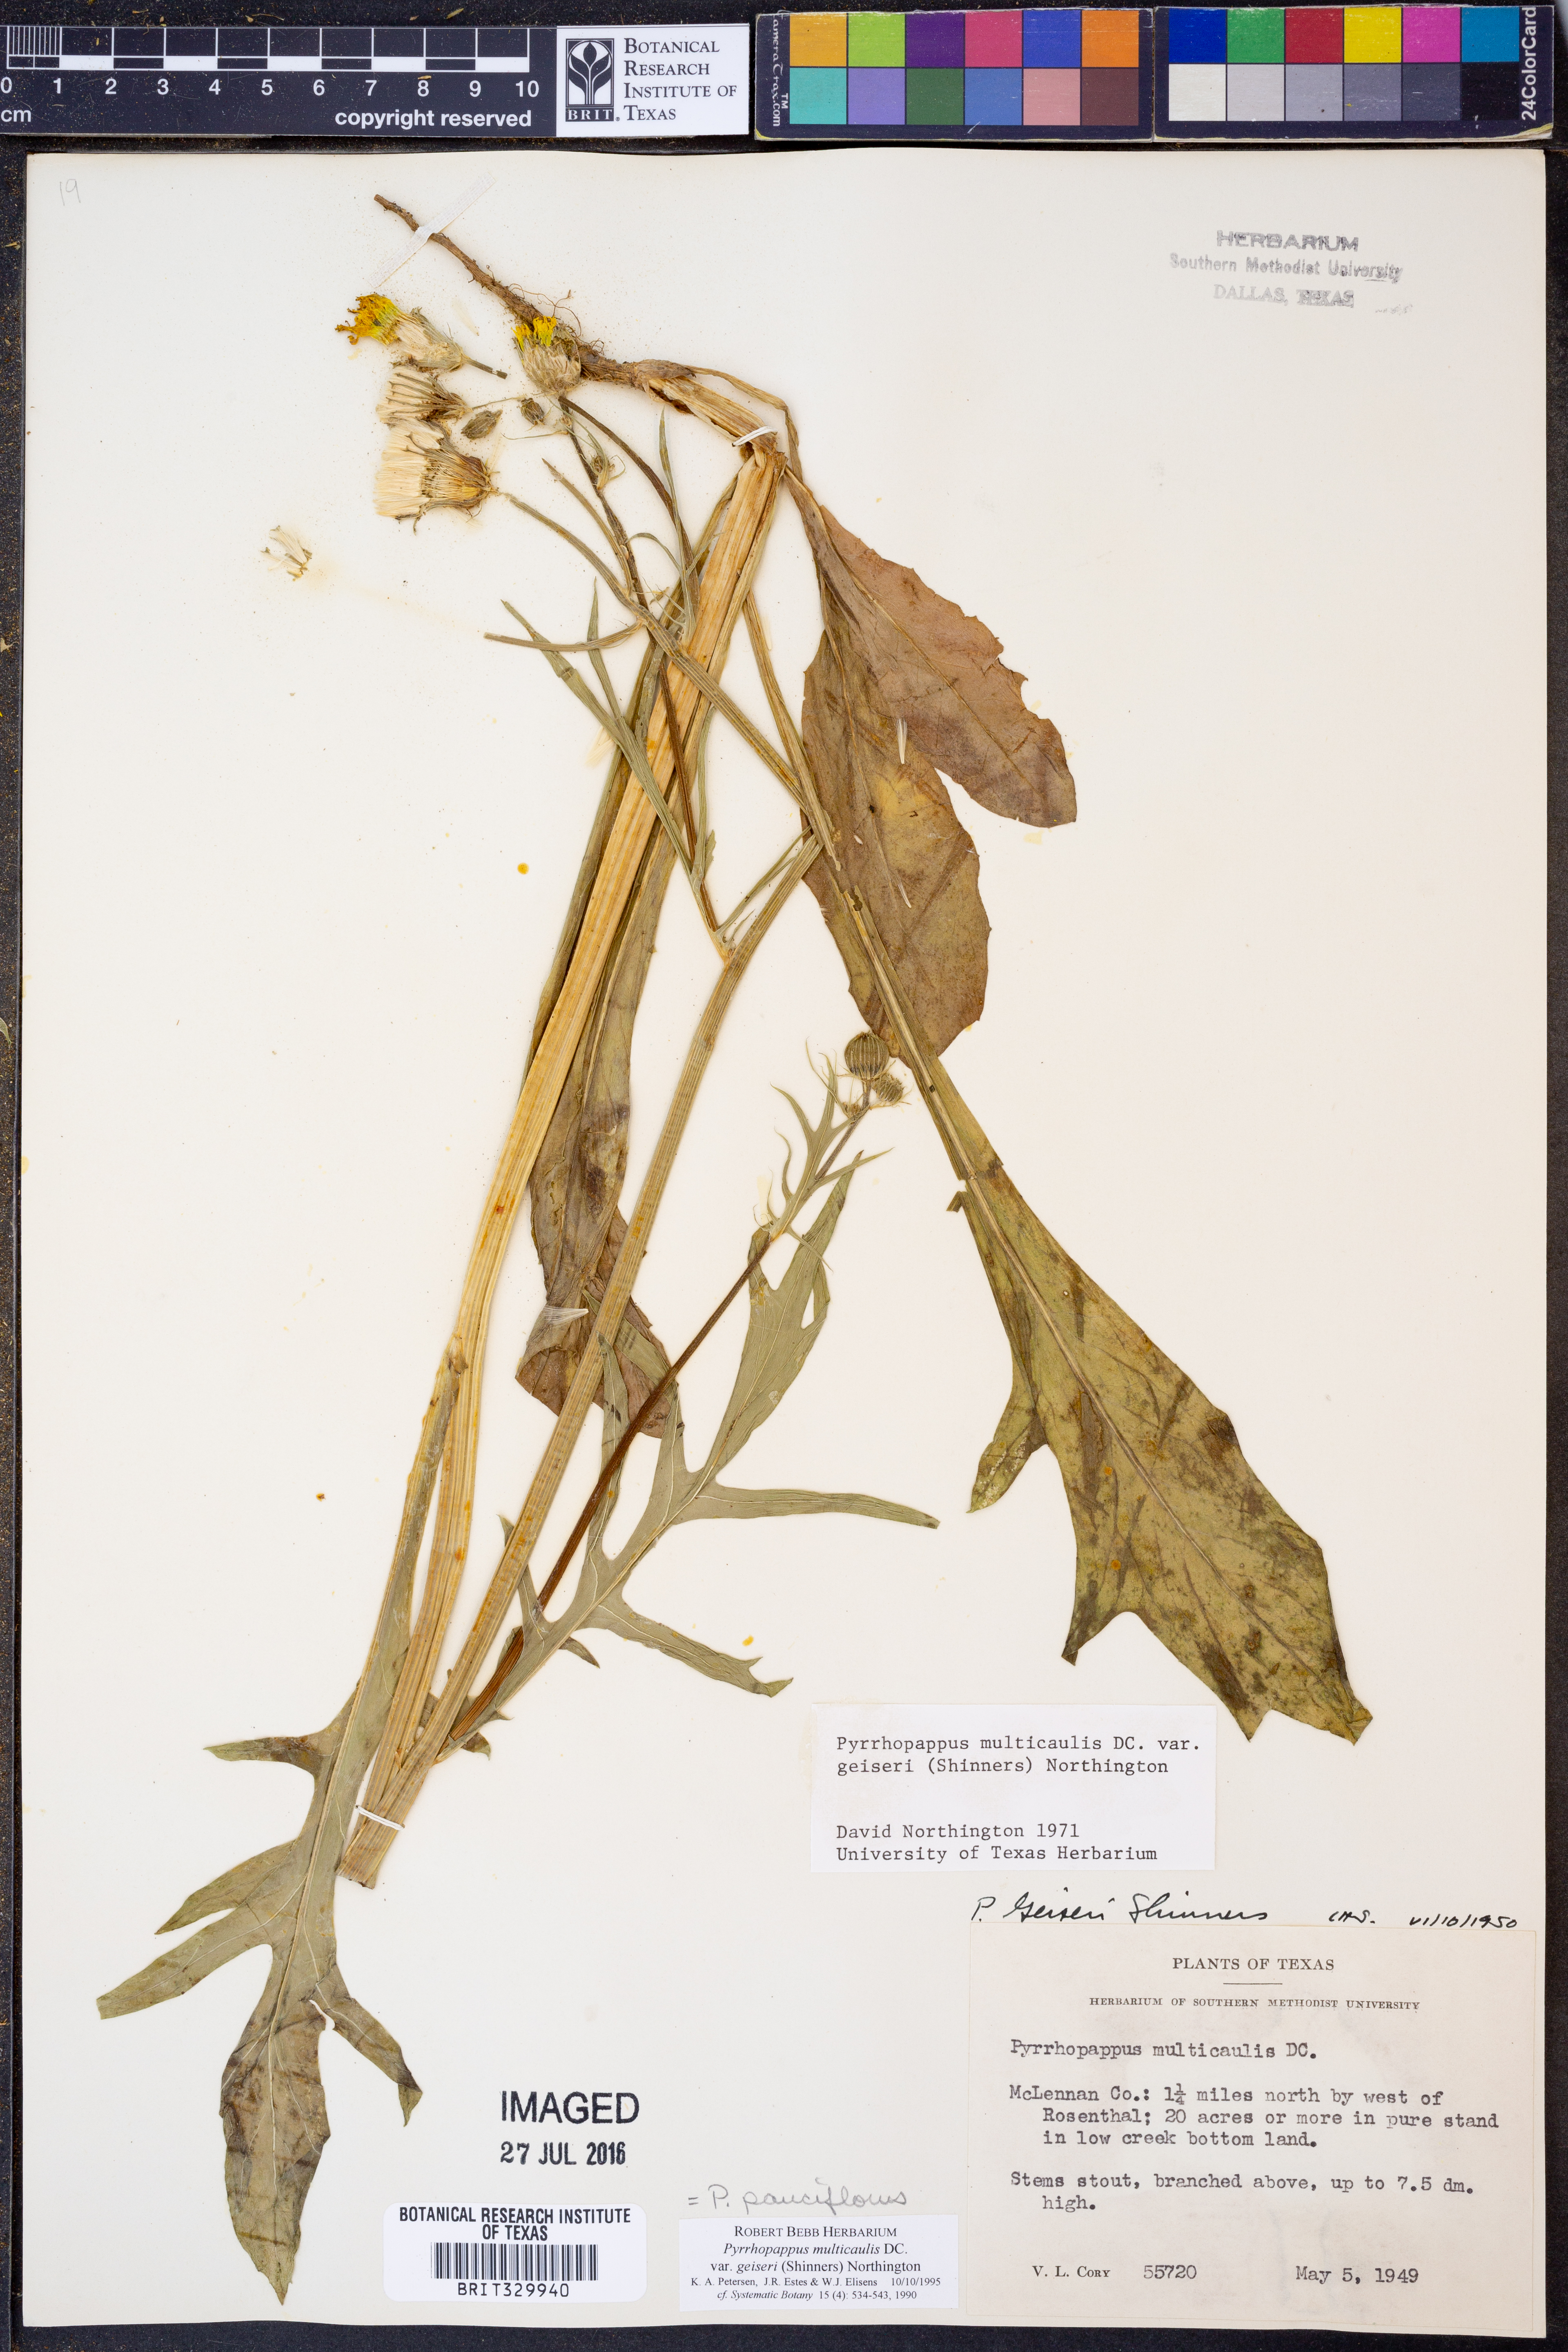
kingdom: Plantae
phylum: Tracheophyta
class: Magnoliopsida
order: Asterales
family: Asteraceae
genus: Pyrrhopappus
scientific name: Pyrrhopappus pauciflorus
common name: Texas false dandelion
